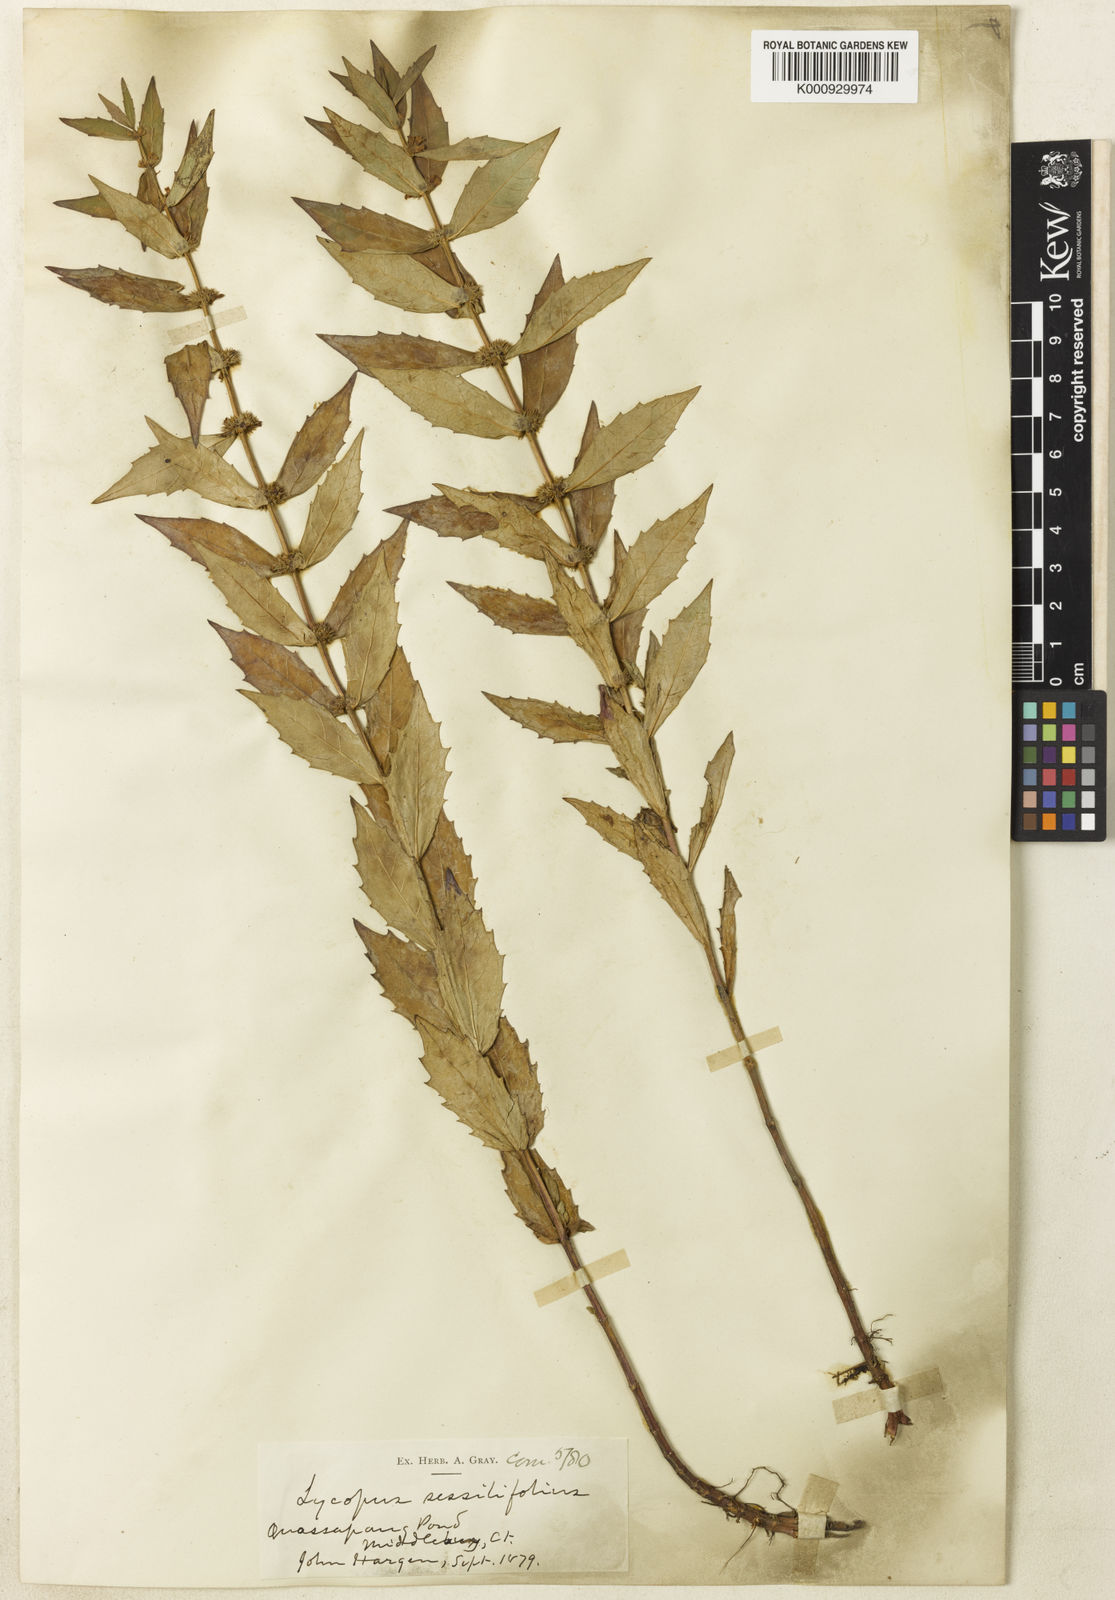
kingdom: Plantae
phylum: Tracheophyta
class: Magnoliopsida
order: Lamiales
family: Lamiaceae
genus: Lycopus
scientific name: Lycopus amplectens
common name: Clasping water horehound
